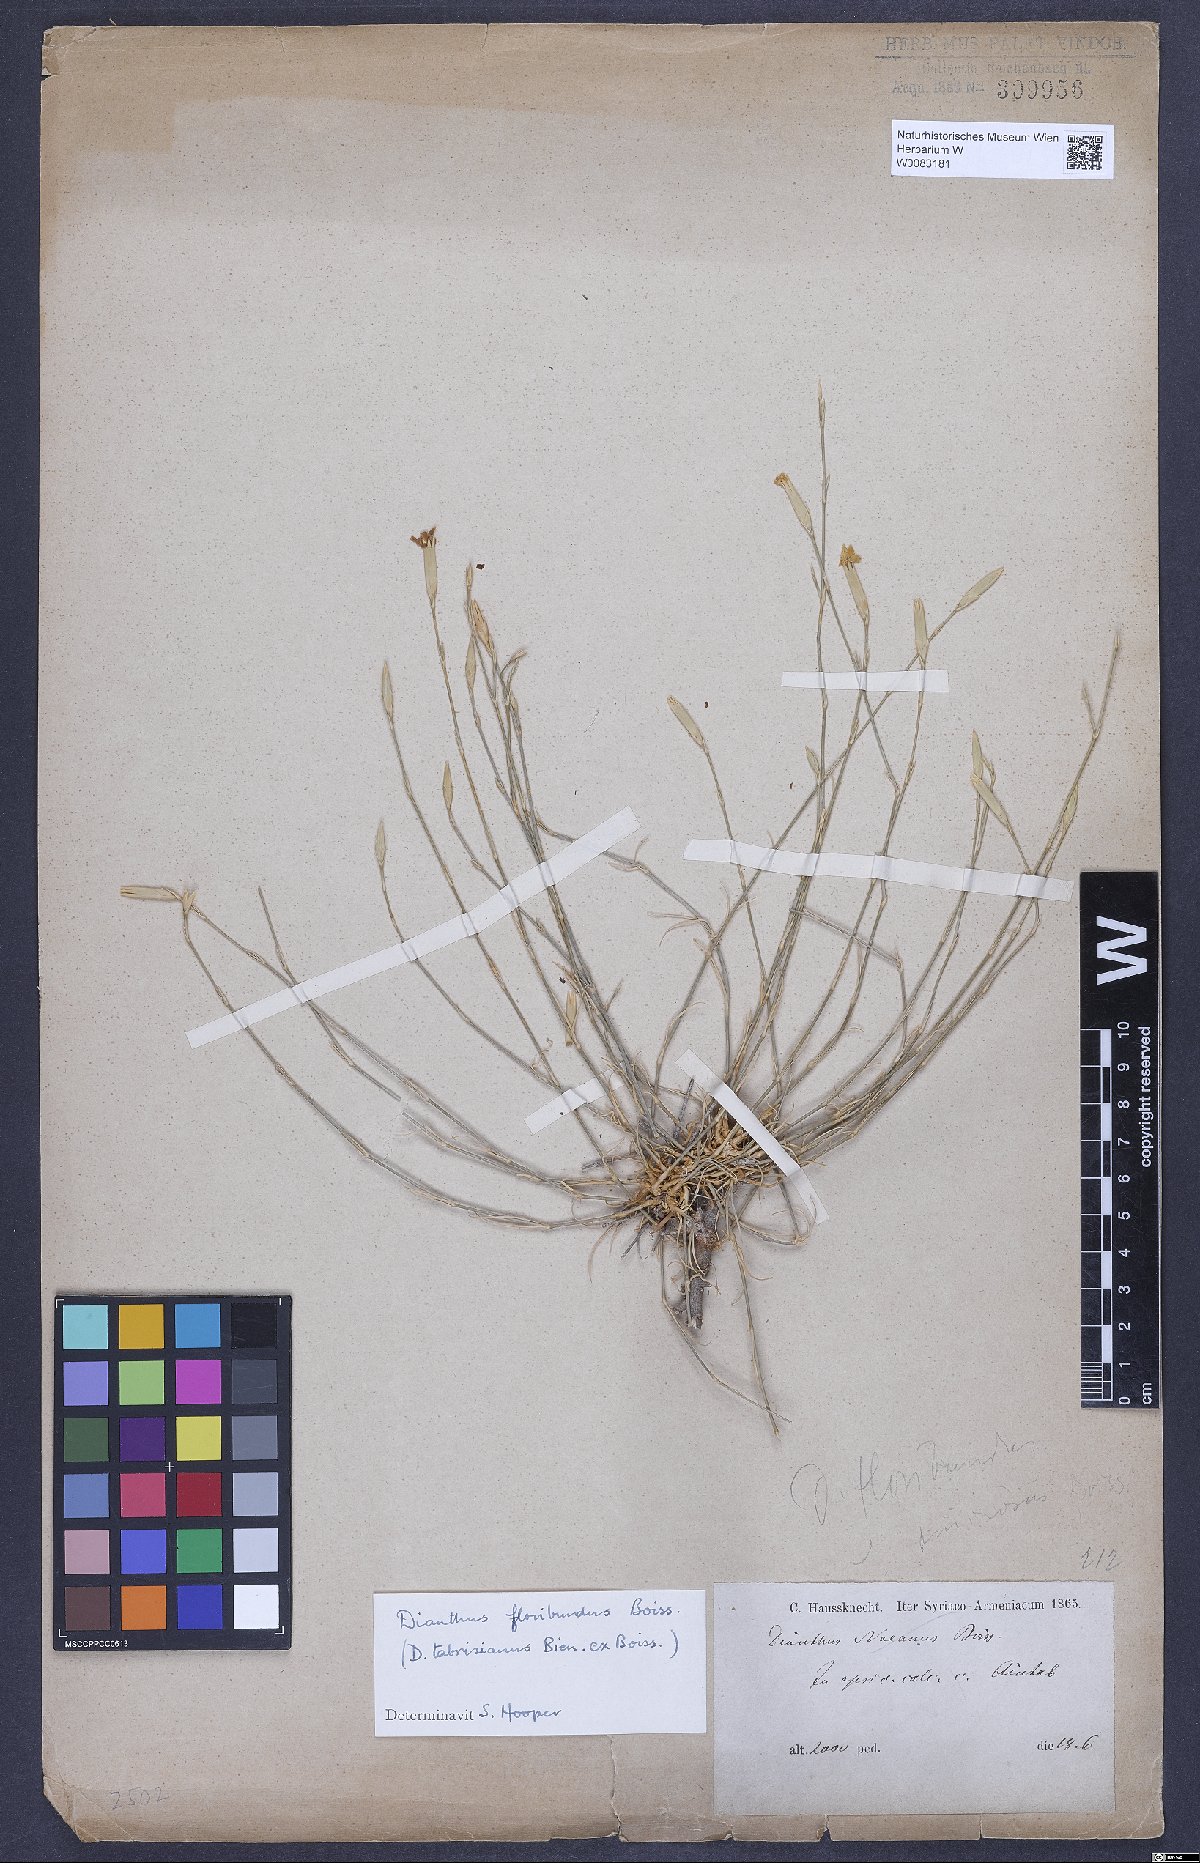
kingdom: Plantae
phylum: Tracheophyta
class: Magnoliopsida
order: Caryophyllales
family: Caryophyllaceae
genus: Dianthus
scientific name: Dianthus floribundus
